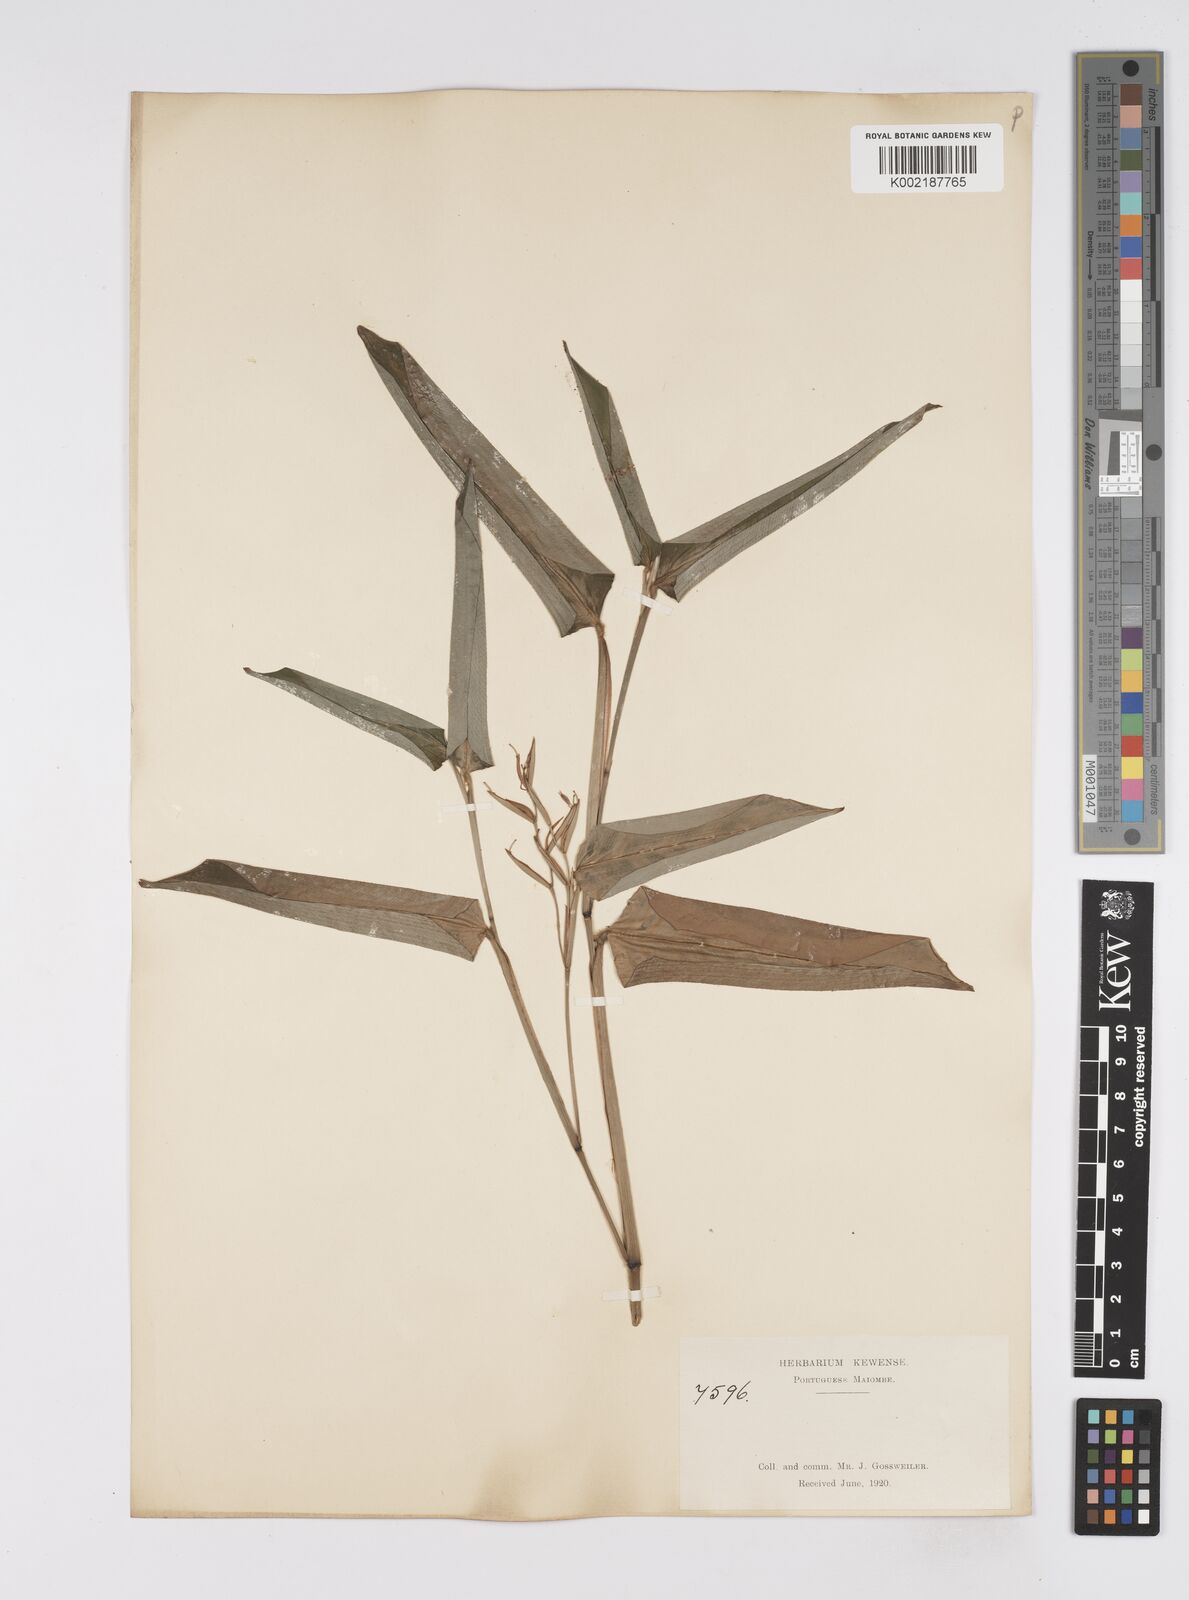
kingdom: Plantae
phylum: Tracheophyta
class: Liliopsida
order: Zingiberales
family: Marantaceae
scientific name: Marantaceae
